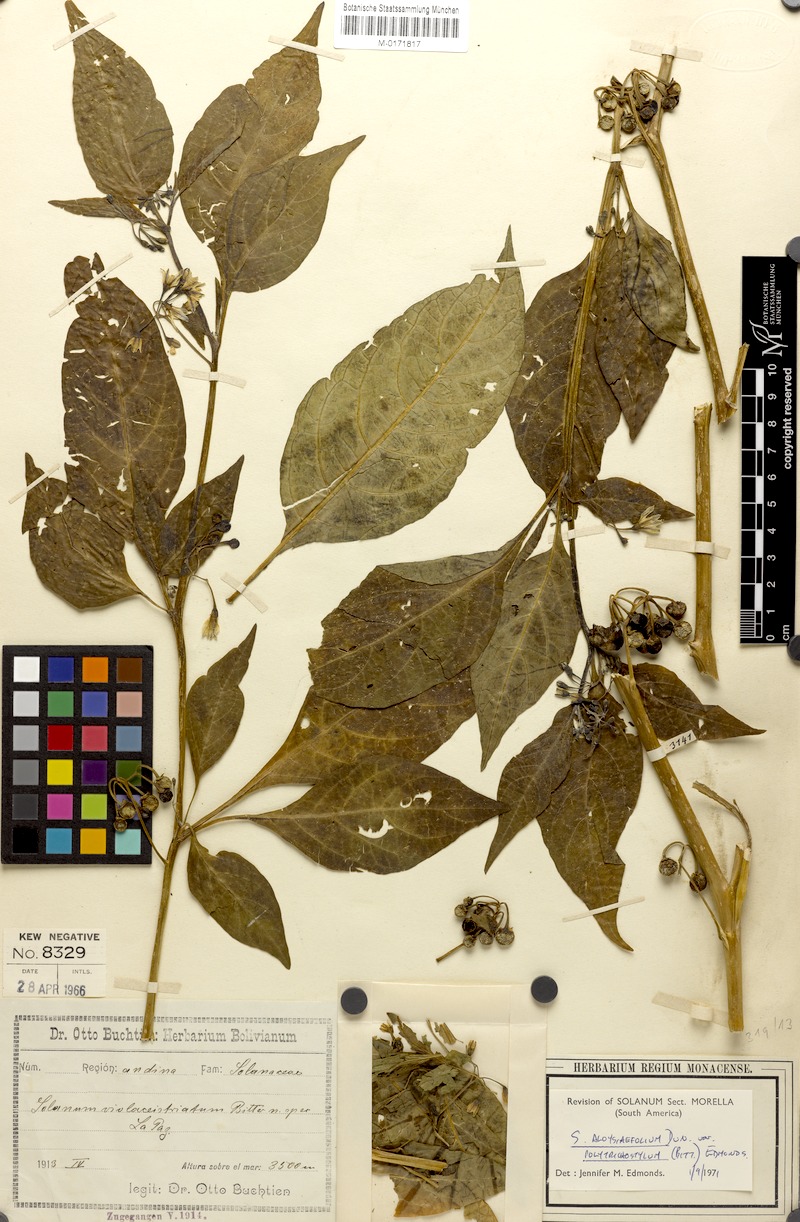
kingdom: Plantae
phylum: Tracheophyta
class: Magnoliopsida
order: Solanales
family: Solanaceae
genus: Solanum
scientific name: Solanum polytrichostylum
